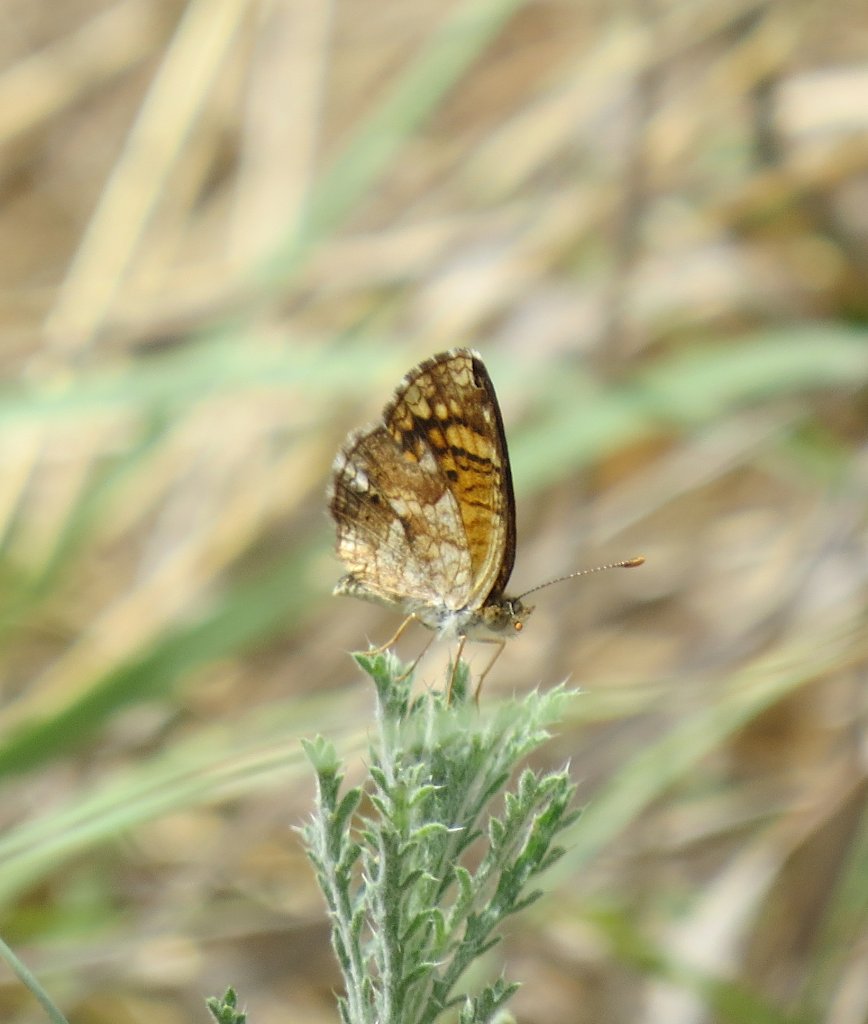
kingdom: Animalia
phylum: Arthropoda
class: Insecta
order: Lepidoptera
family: Nymphalidae
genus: Phyciodes
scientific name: Phyciodes vesta
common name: Vesta Crescent
